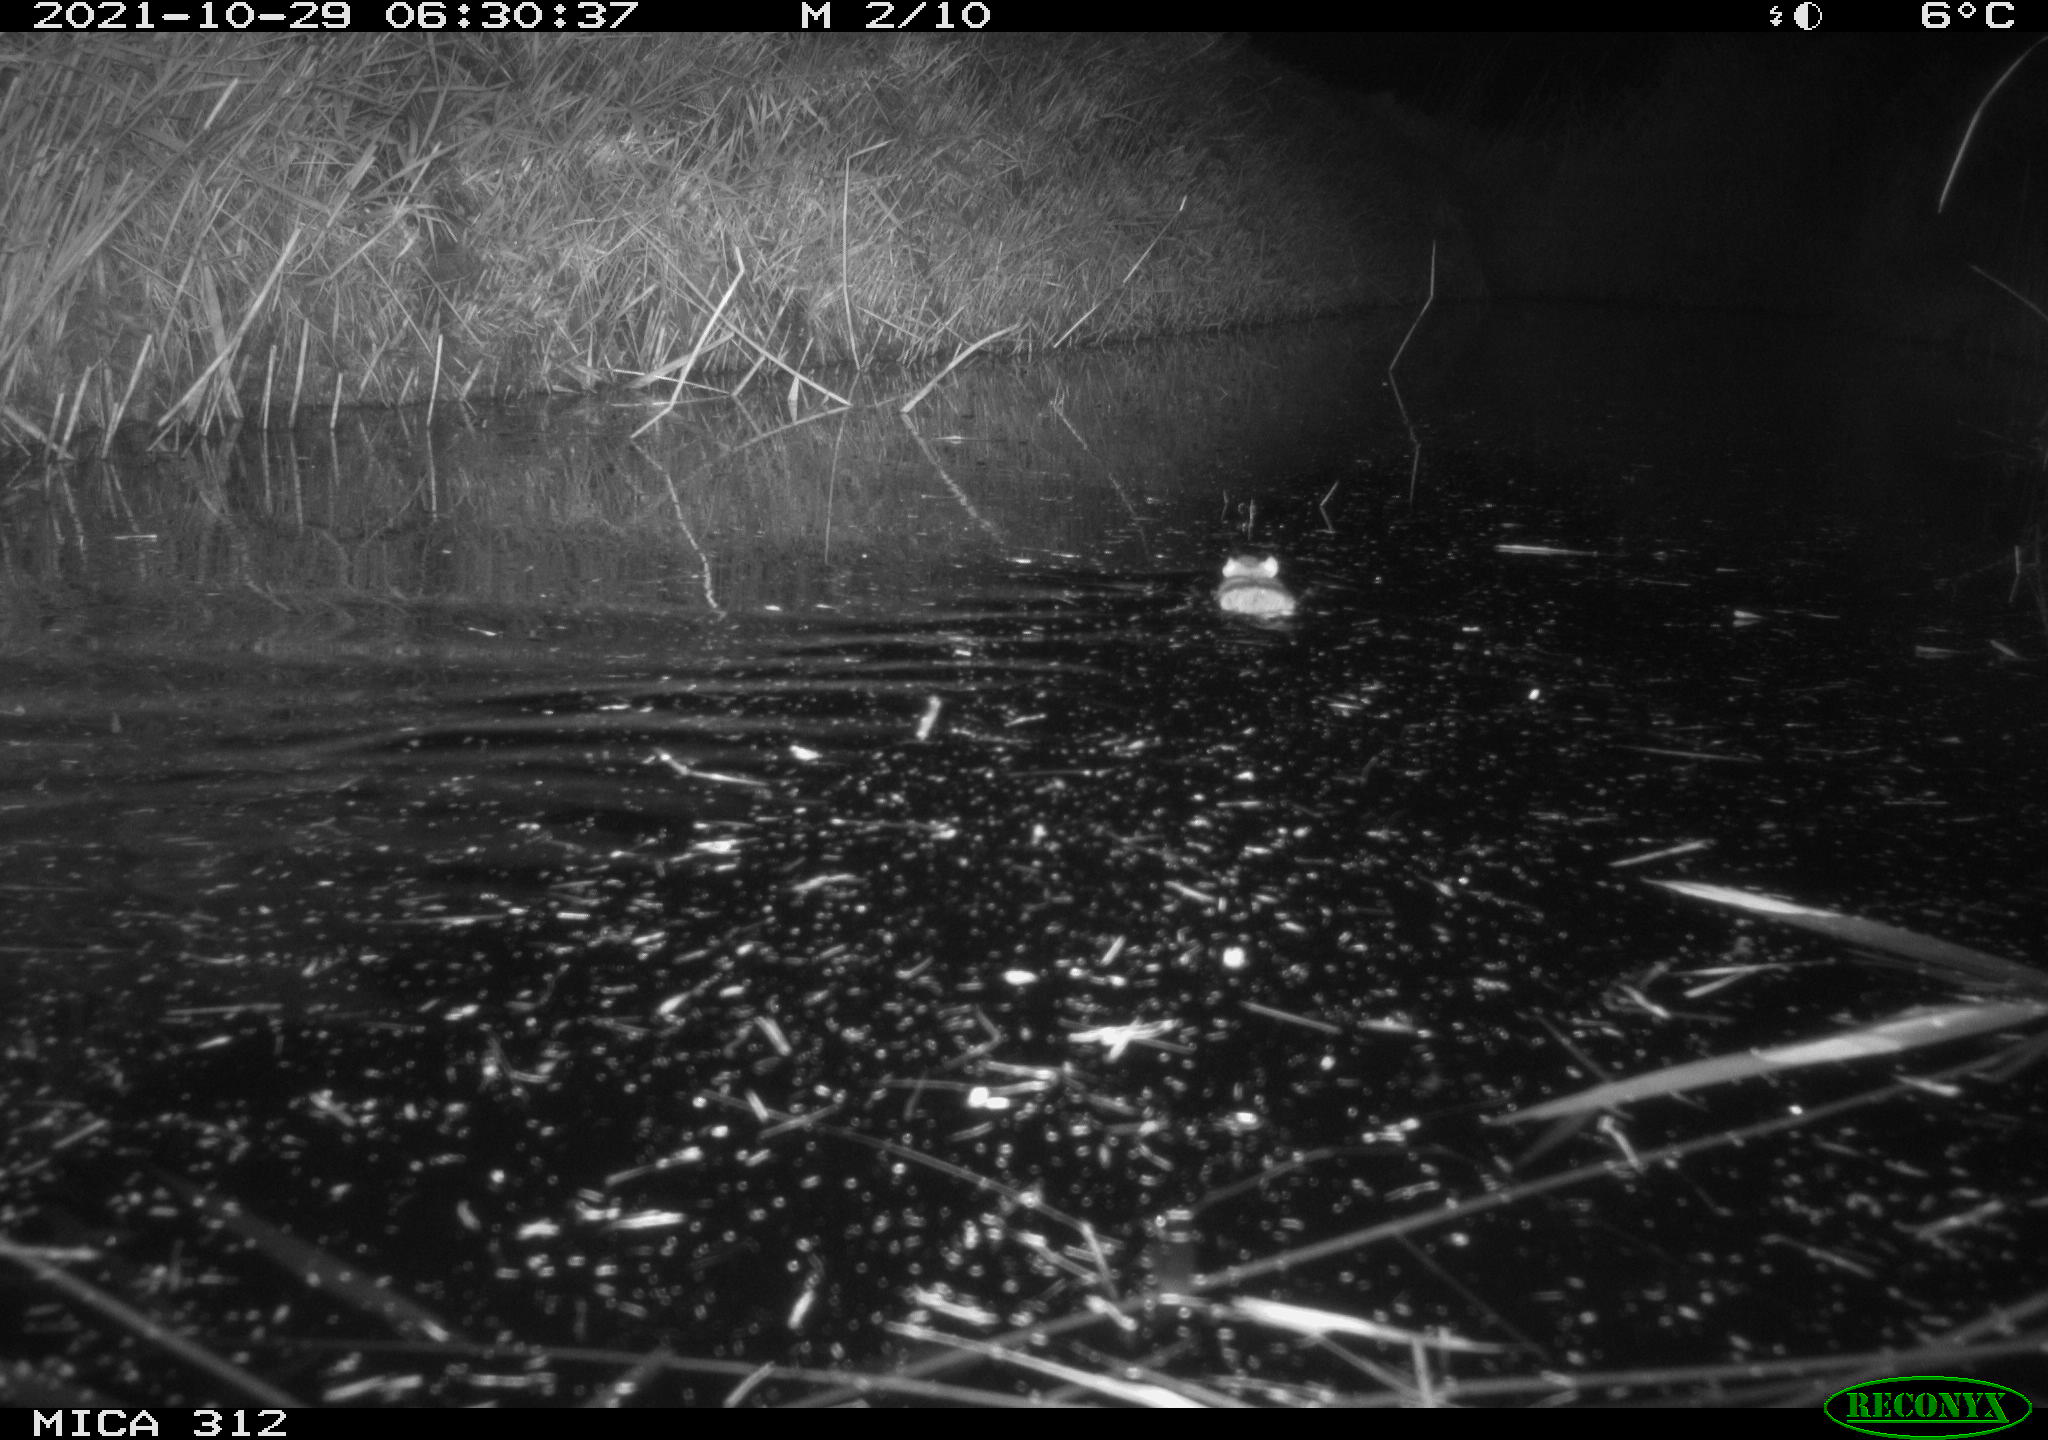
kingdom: Animalia
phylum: Chordata
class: Mammalia
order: Rodentia
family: Muridae
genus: Rattus
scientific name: Rattus norvegicus
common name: Brown rat
